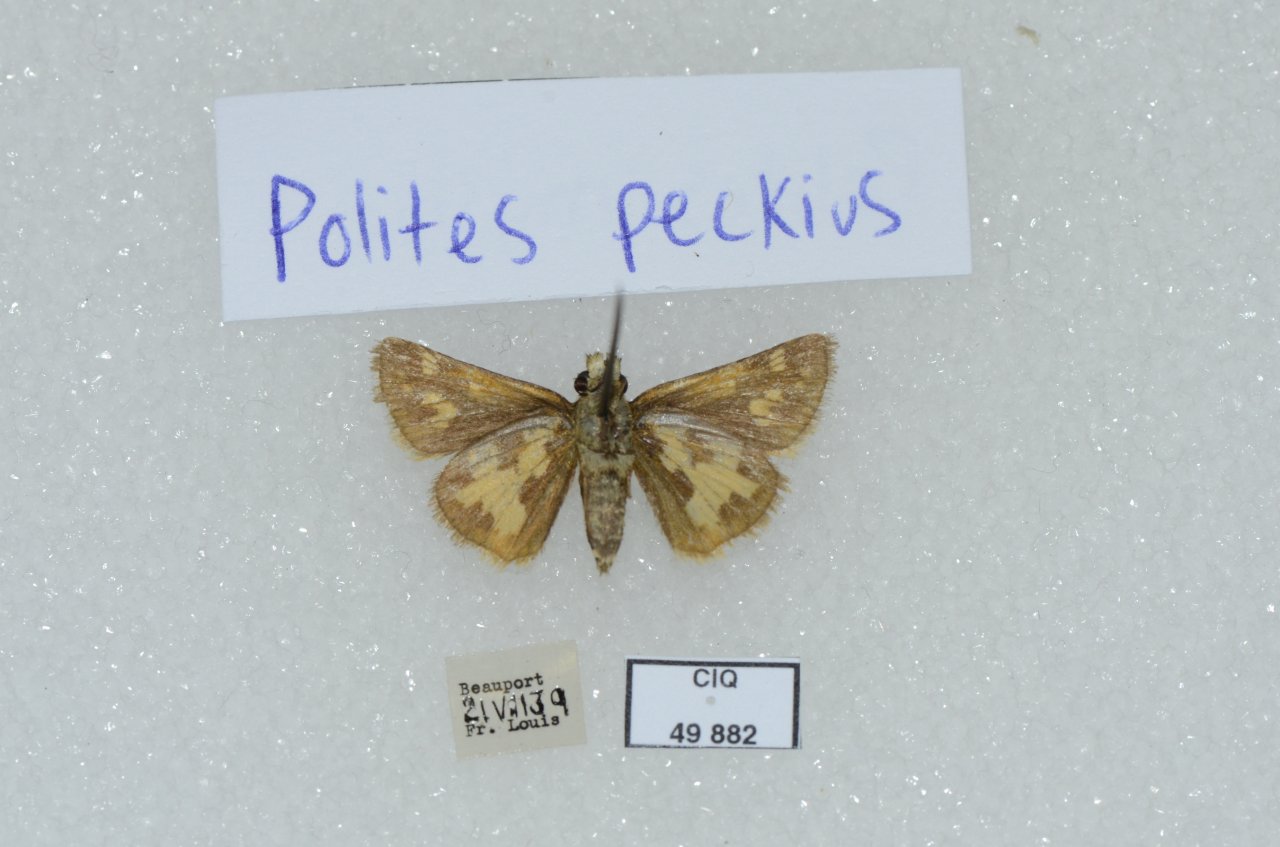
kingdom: Animalia
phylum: Arthropoda
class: Insecta
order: Lepidoptera
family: Hesperiidae
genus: Polites
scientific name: Polites coras
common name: Peck's Skipper
